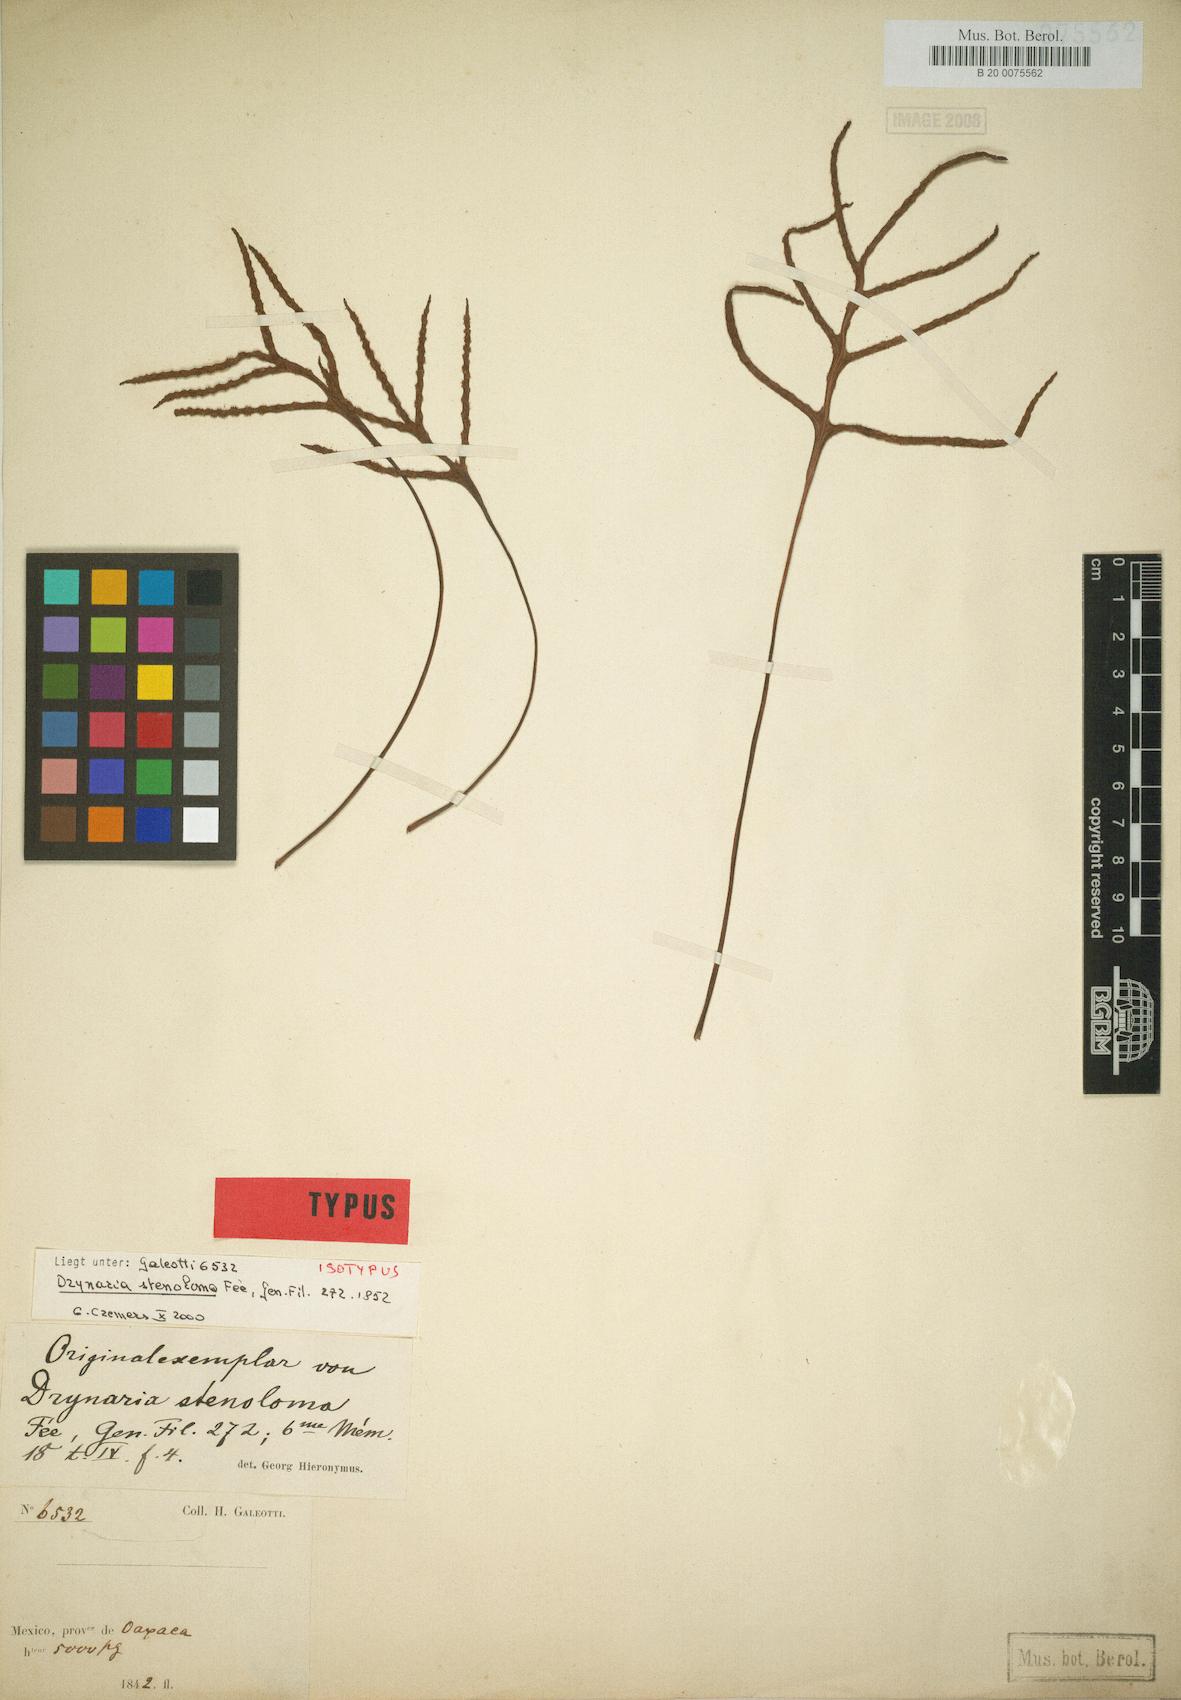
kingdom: Plantae
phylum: Tracheophyta
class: Polypodiopsida
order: Polypodiales
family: Polypodiaceae
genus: Pleopeltis
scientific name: Pleopeltis angusta
